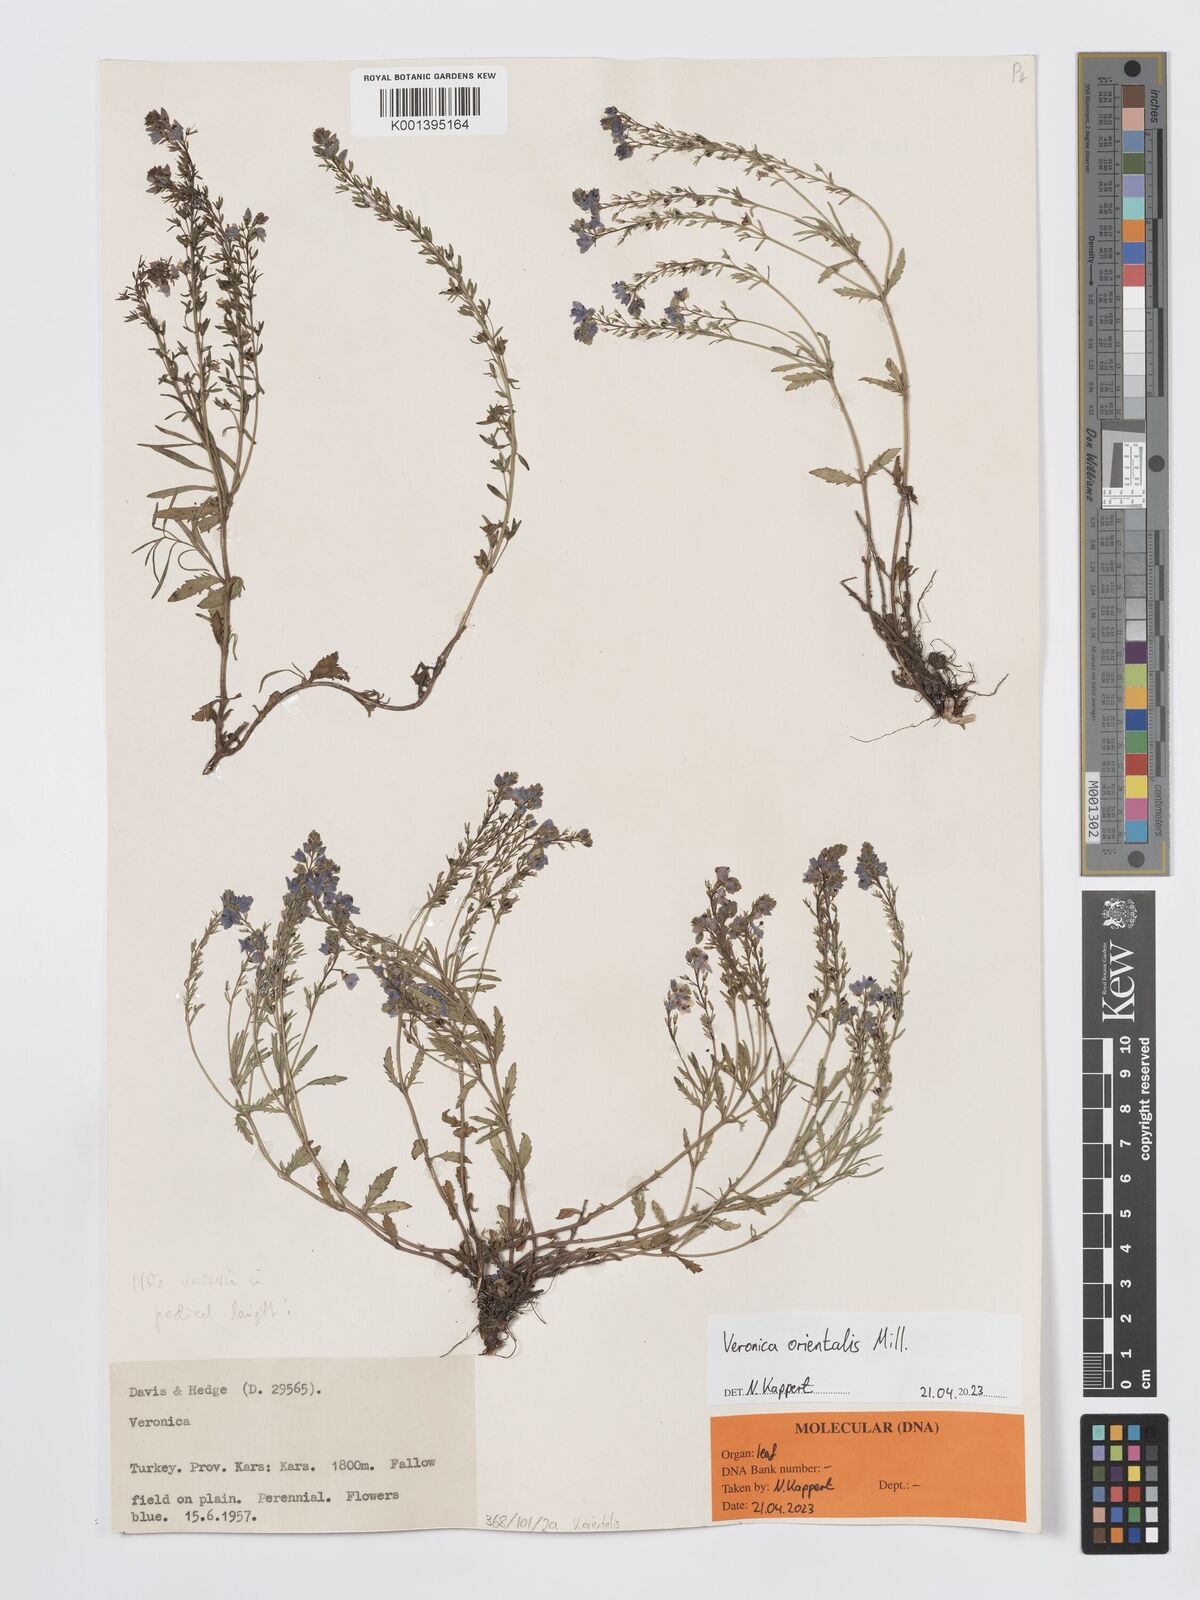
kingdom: Plantae
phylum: Tracheophyta
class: Magnoliopsida
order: Lamiales
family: Plantaginaceae
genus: Veronica
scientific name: Veronica orientalis
